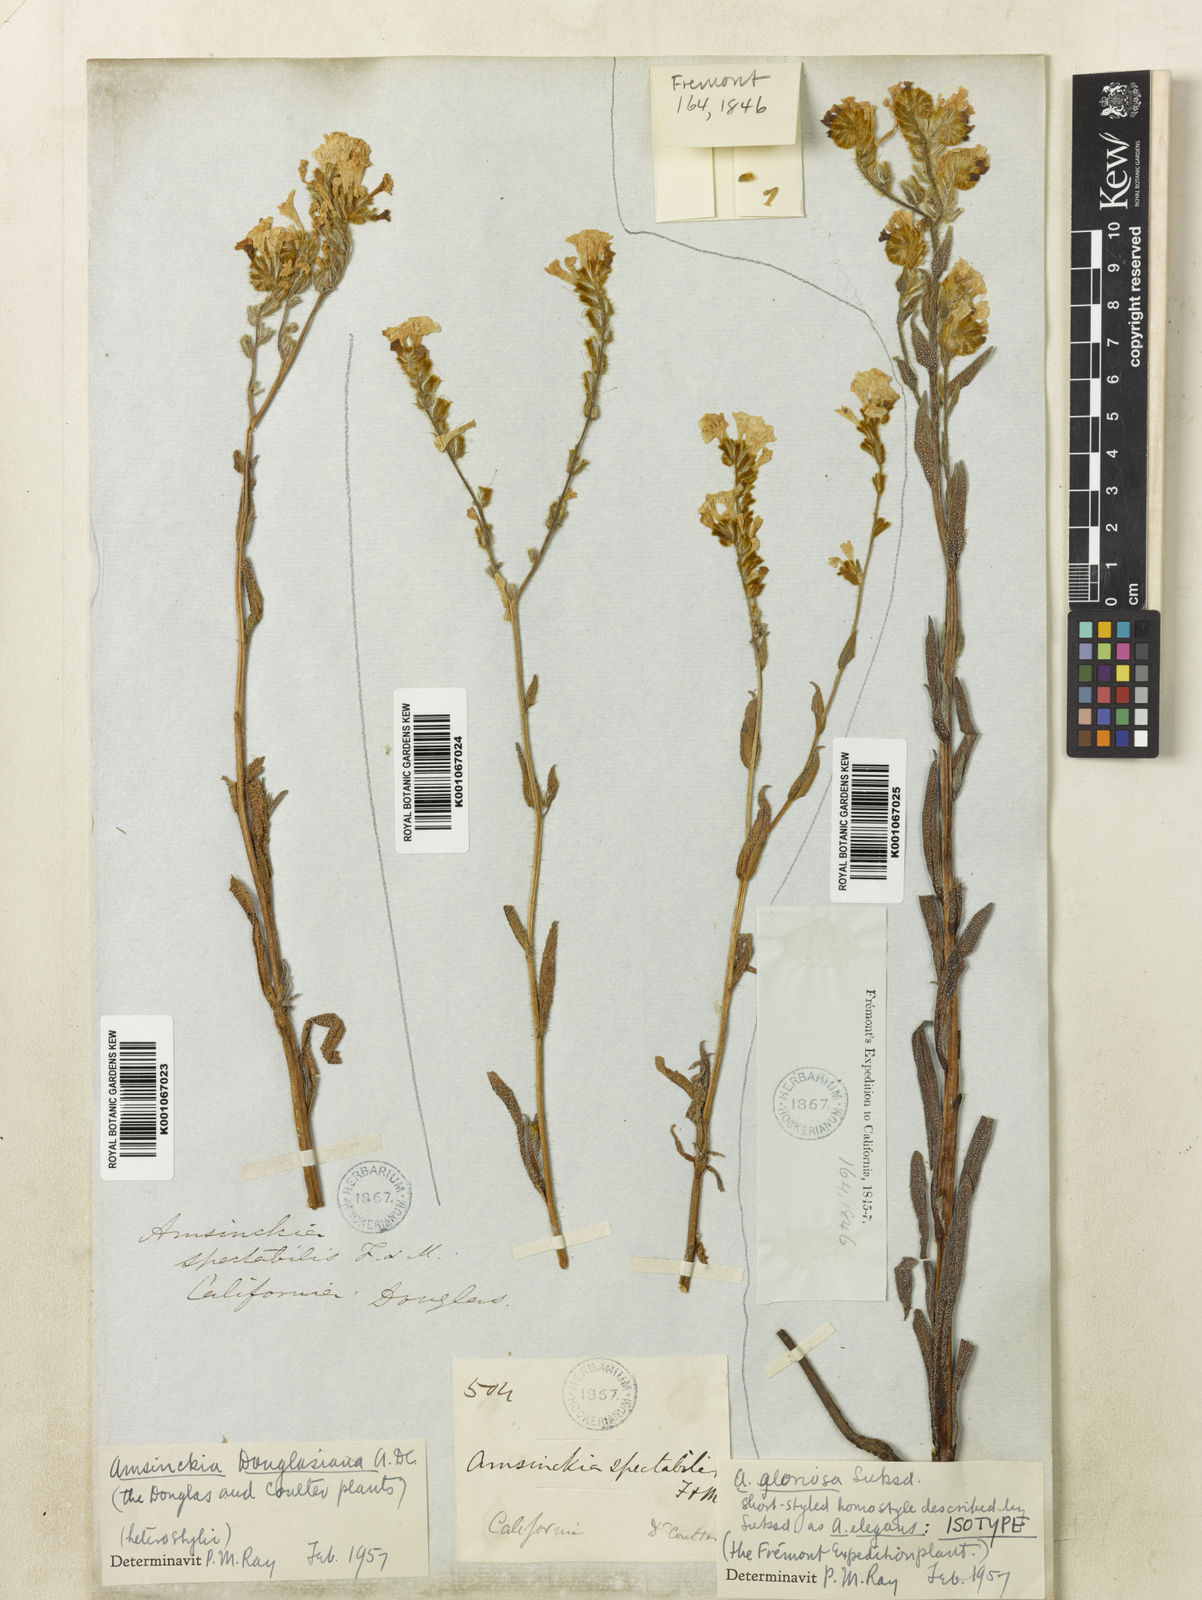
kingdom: Plantae
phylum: Tracheophyta
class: Magnoliopsida
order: Boraginales
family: Boraginaceae
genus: Amsinckia
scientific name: Amsinckia douglasiana
